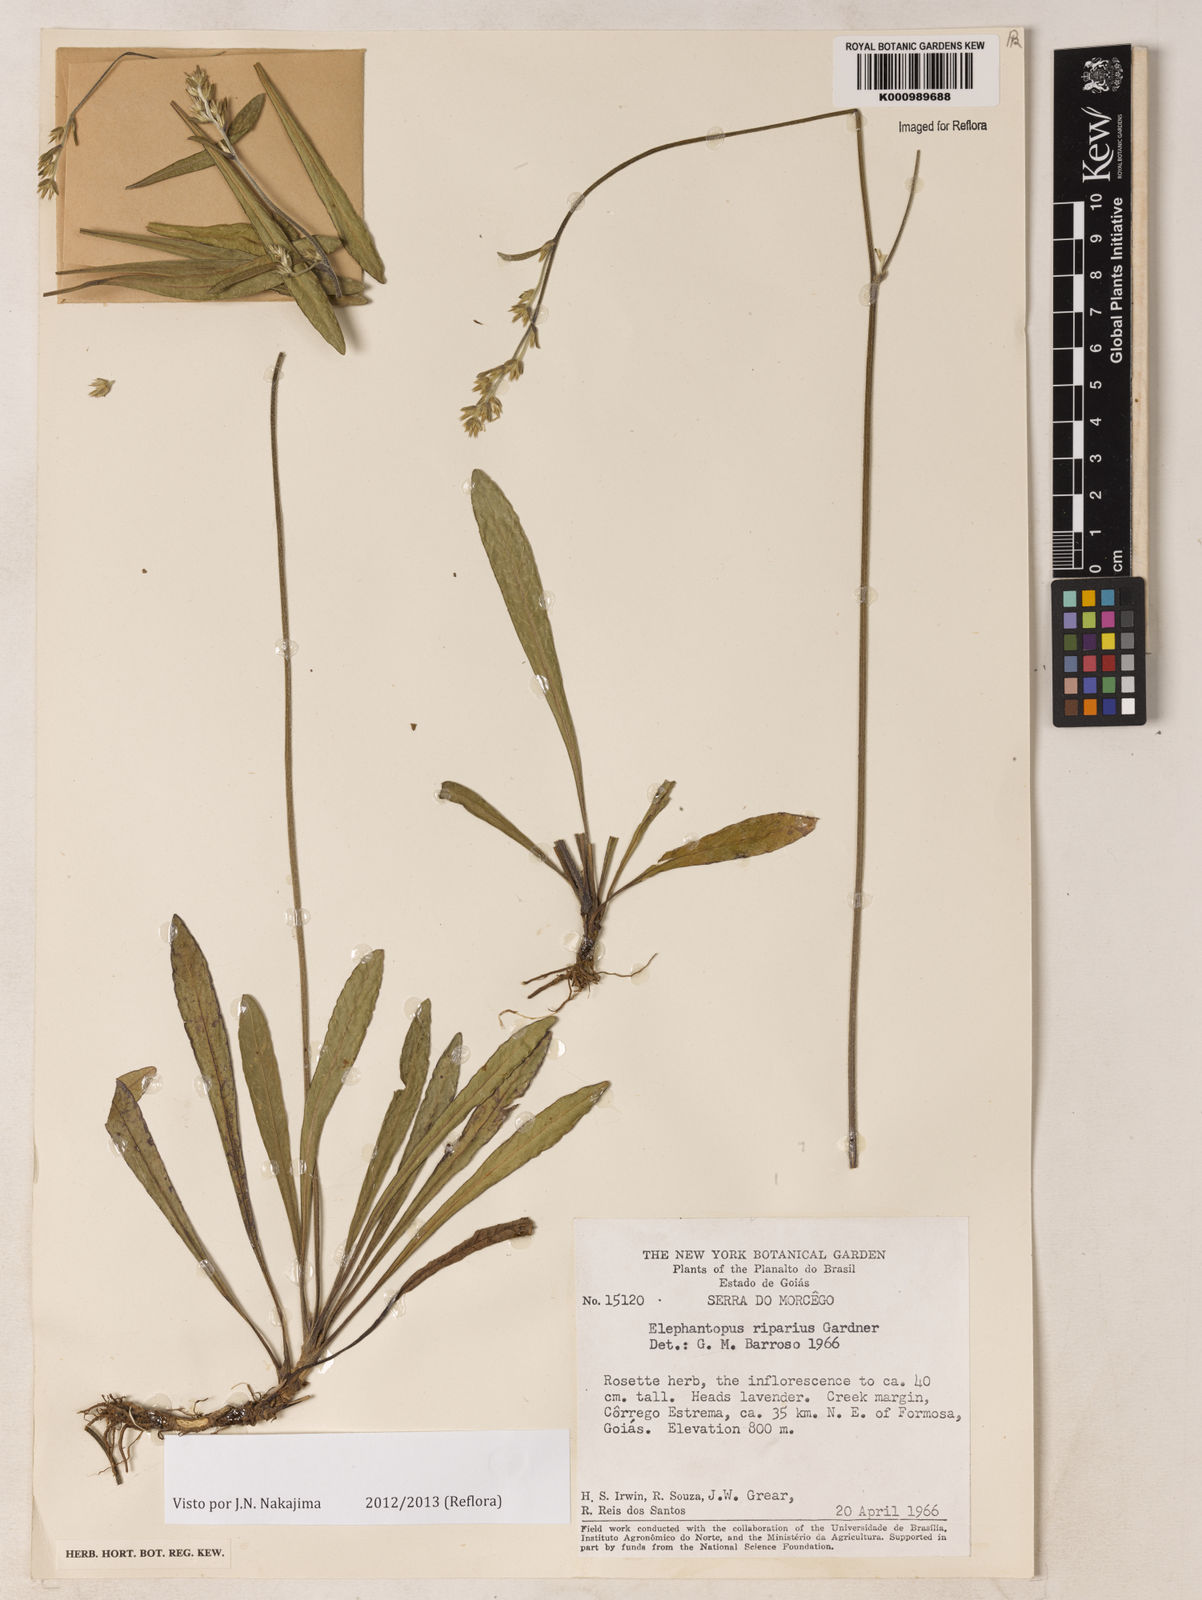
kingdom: Plantae
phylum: Tracheophyta
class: Magnoliopsida
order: Asterales
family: Asteraceae
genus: Elephantopus
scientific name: Elephantopus riparius
